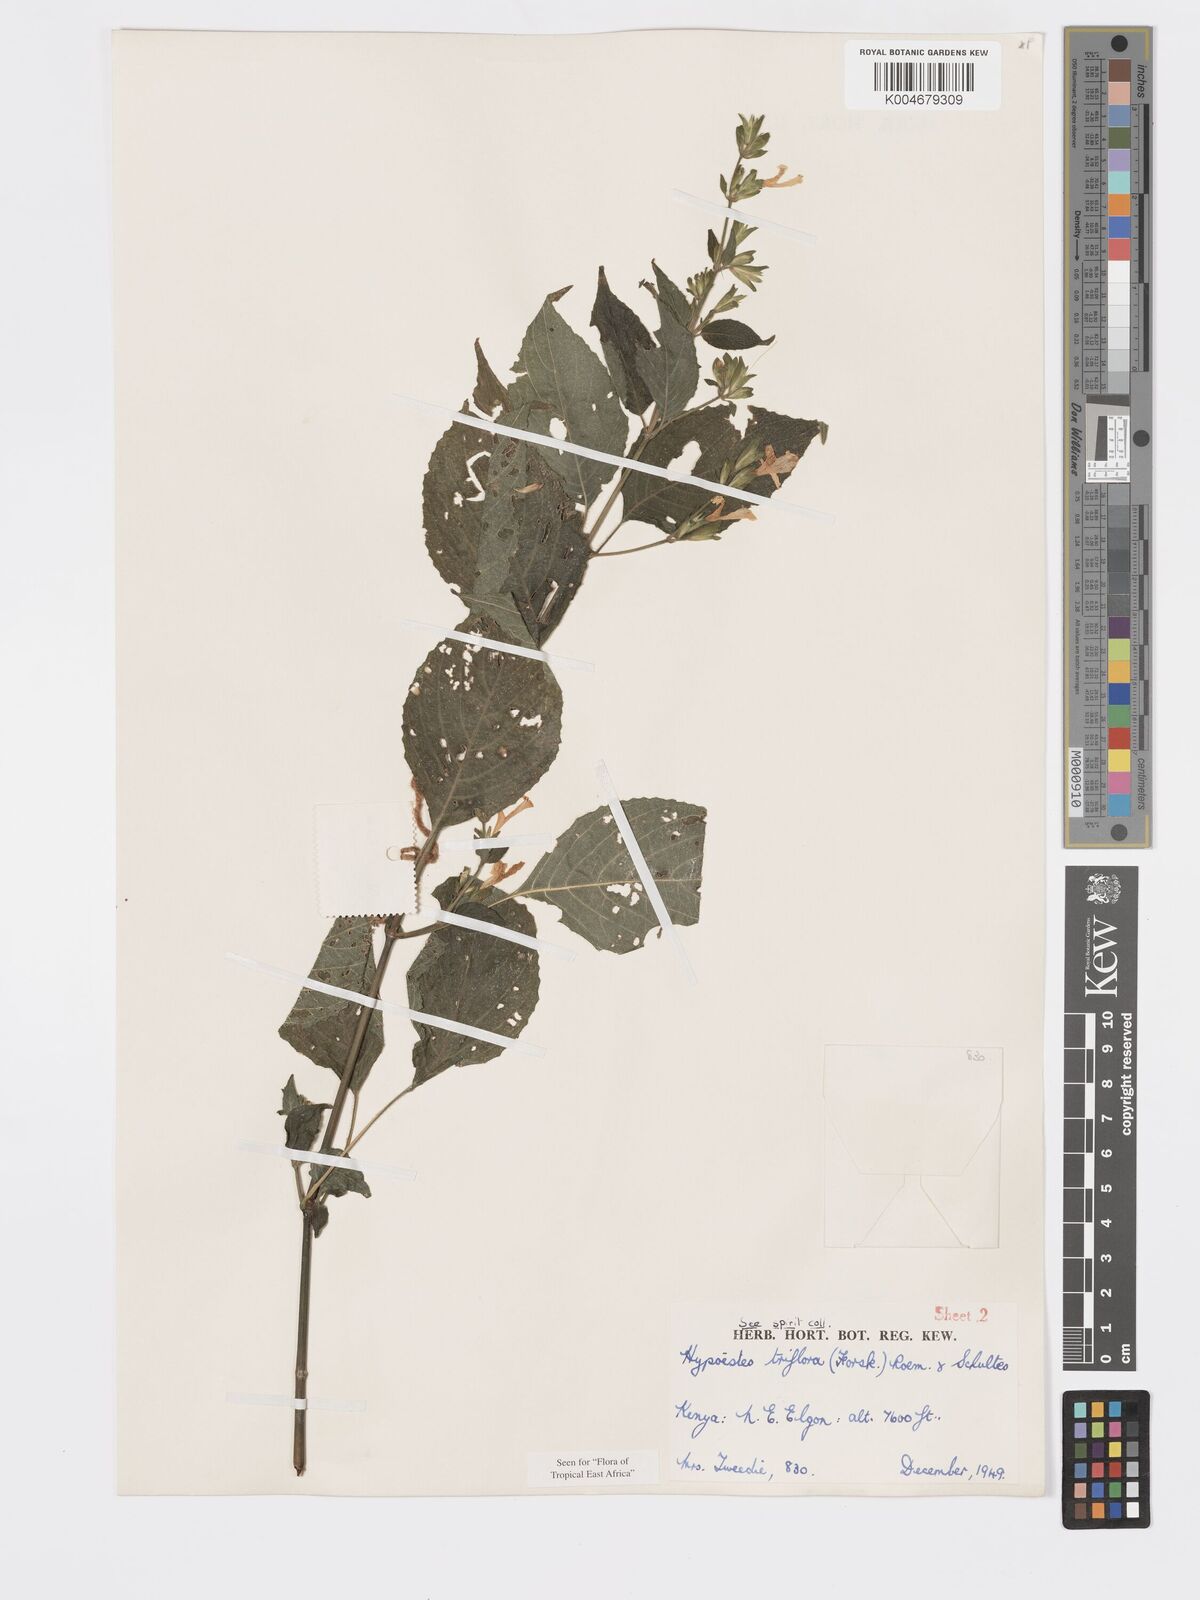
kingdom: Plantae
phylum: Tracheophyta
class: Magnoliopsida
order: Lamiales
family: Acanthaceae
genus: Hypoestes
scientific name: Hypoestes triflora
